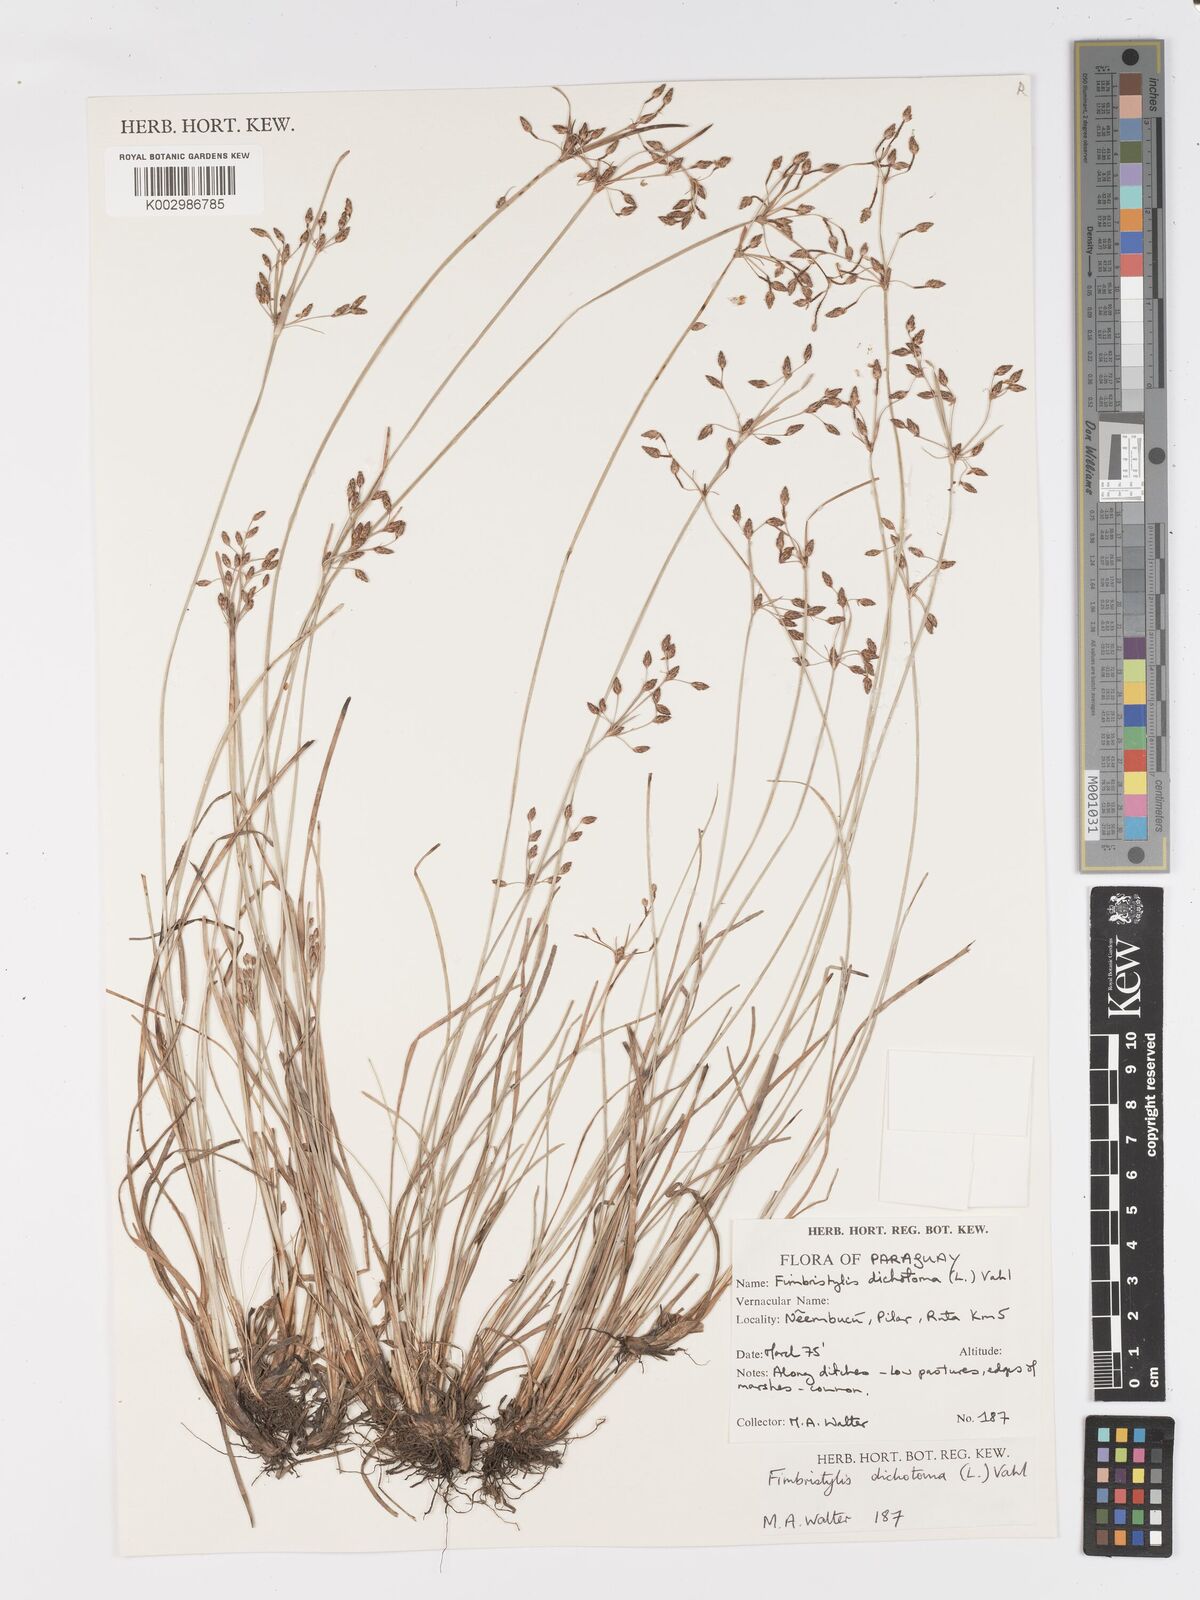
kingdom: Plantae
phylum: Tracheophyta
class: Liliopsida
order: Poales
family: Cyperaceae
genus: Fimbristylis
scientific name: Fimbristylis dichotoma
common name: Forked fimbry
